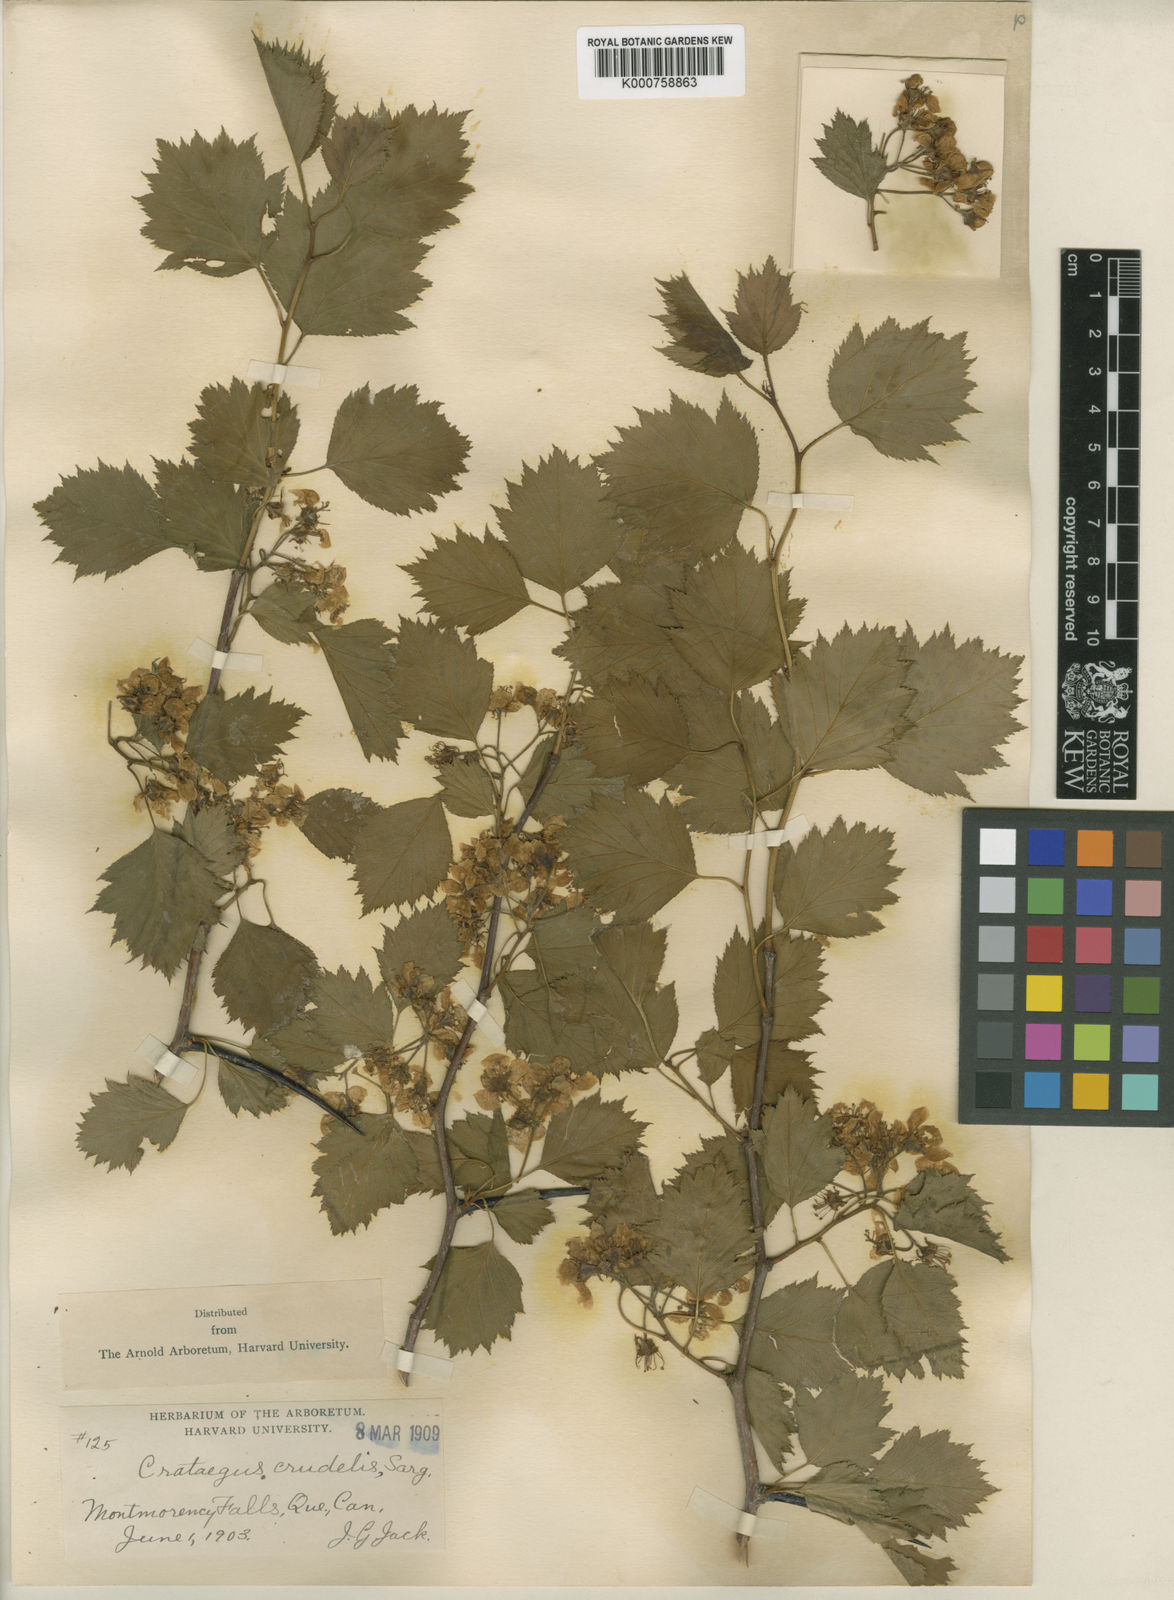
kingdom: Plantae
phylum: Tracheophyta
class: Magnoliopsida
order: Rosales
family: Rosaceae
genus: Crataegus
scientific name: Crataegus flabellata
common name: Bosc's hawthorn
